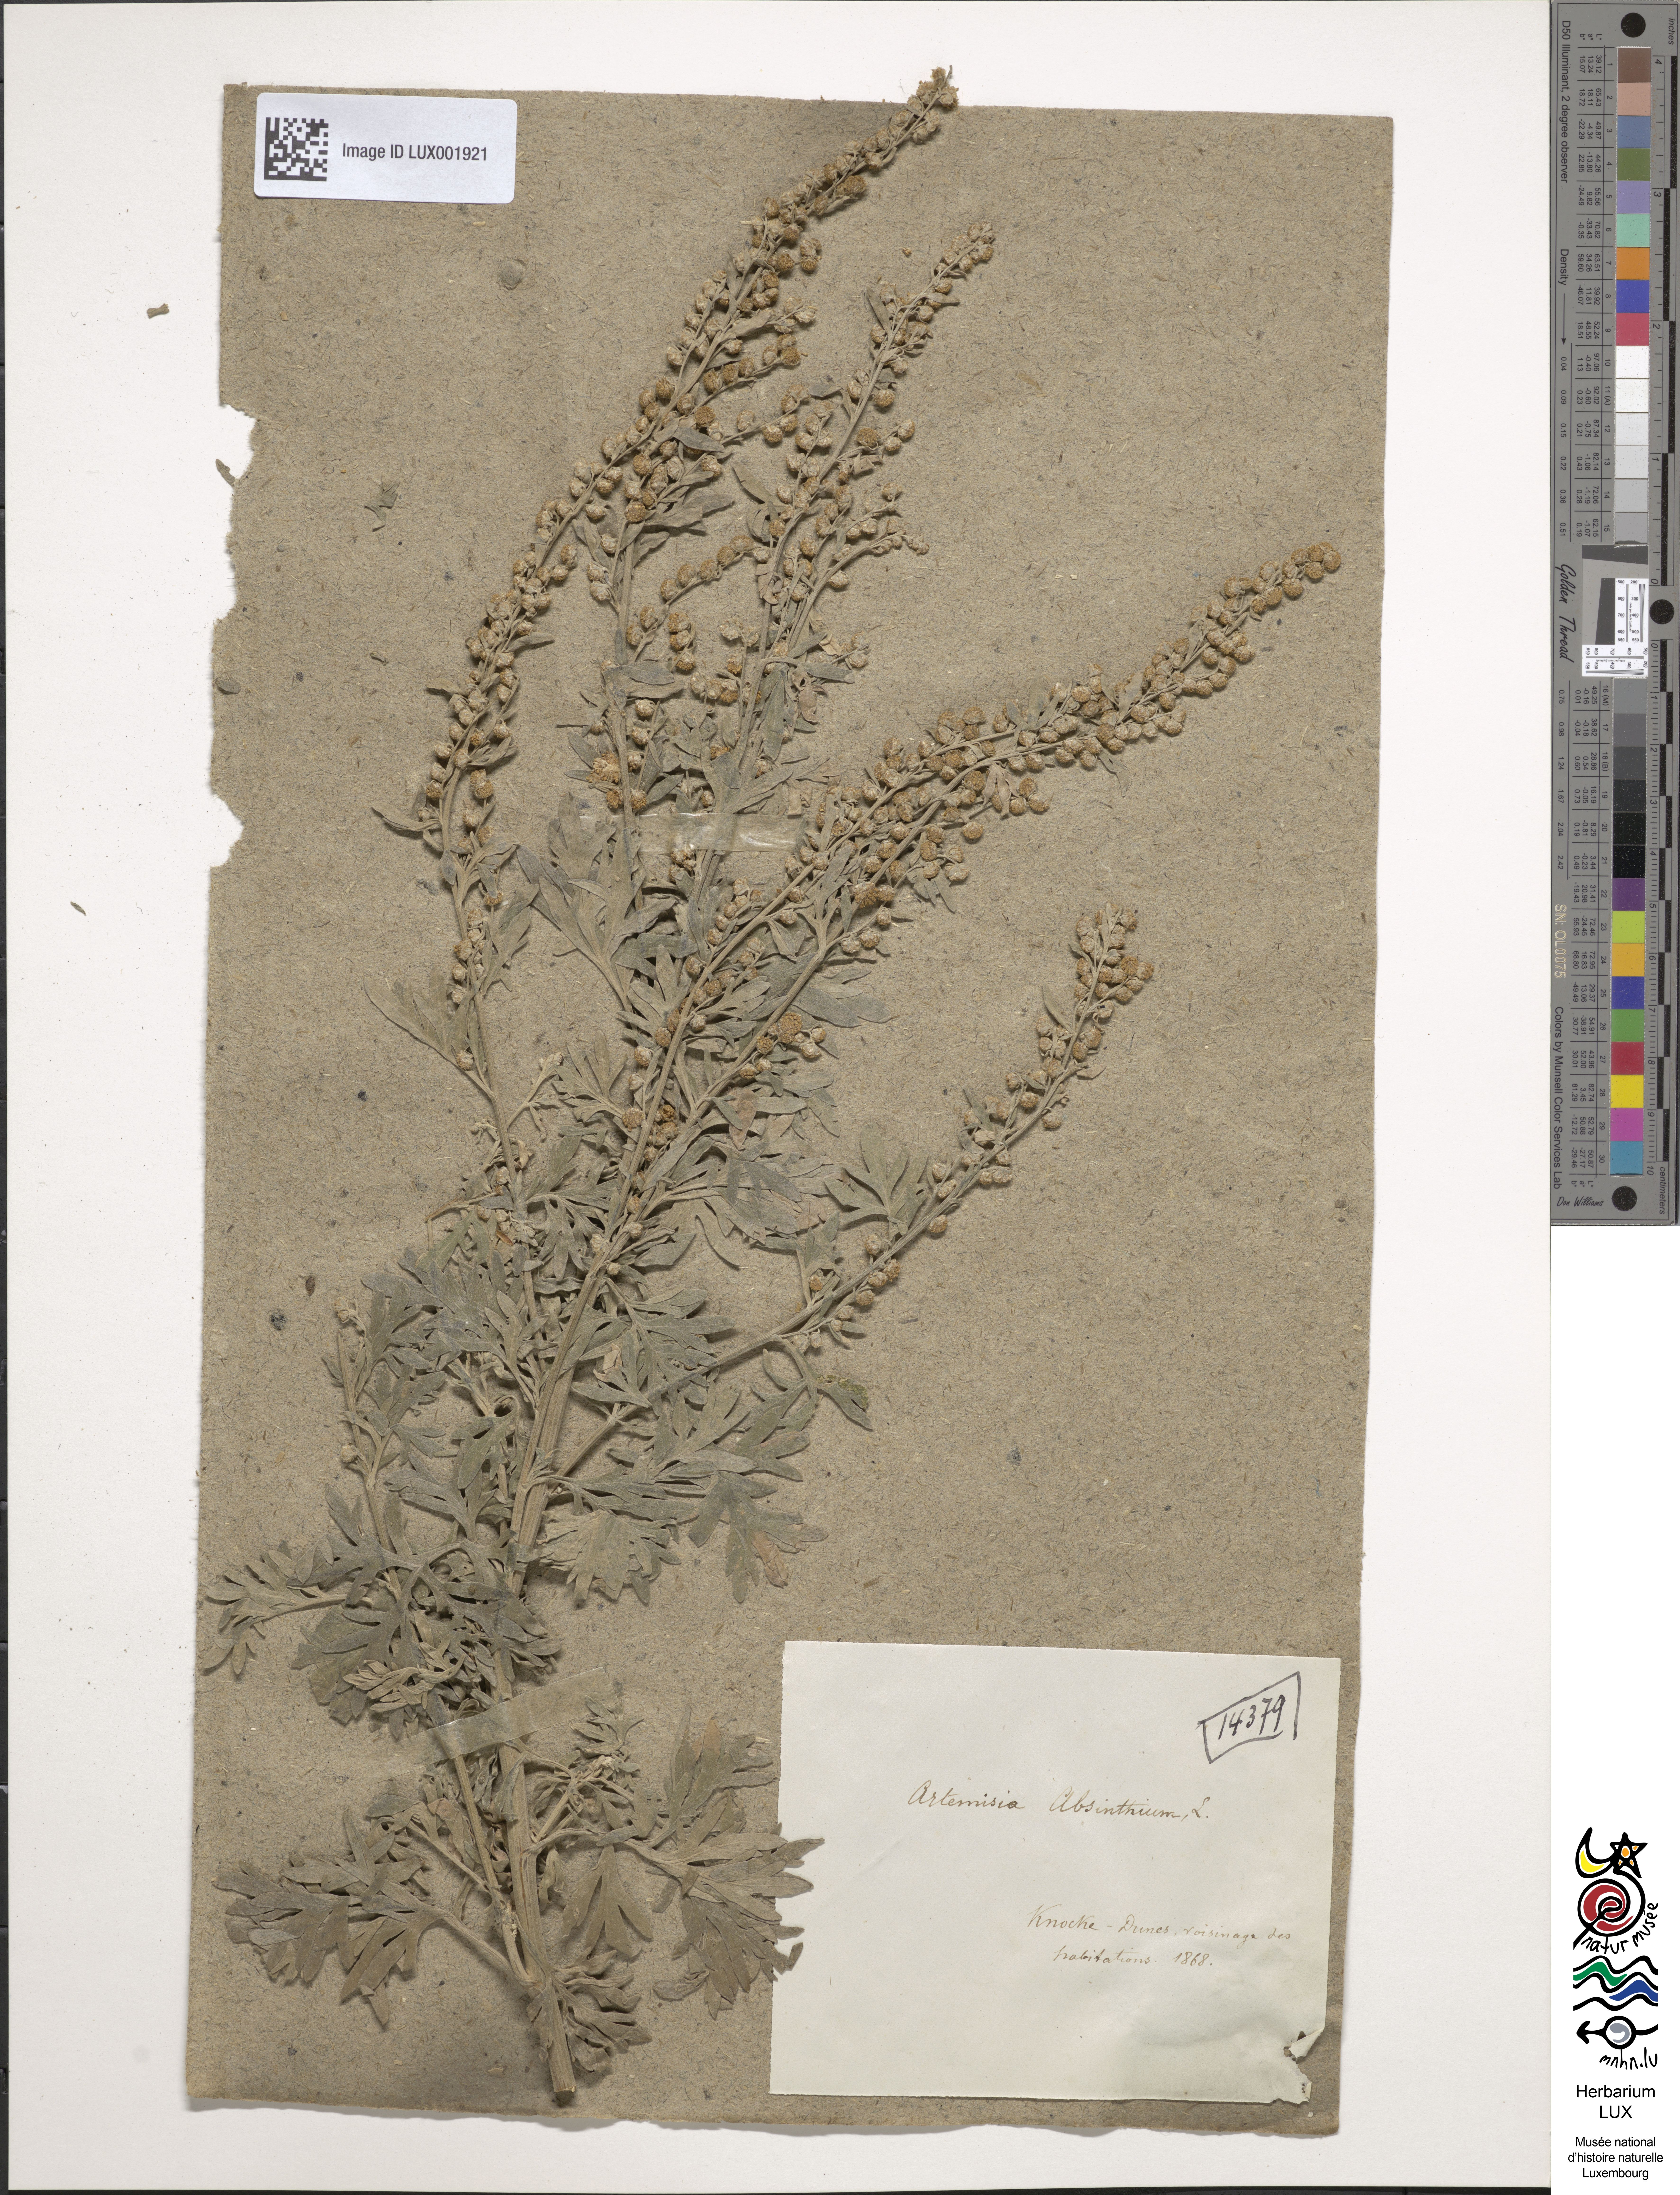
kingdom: Plantae
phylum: Tracheophyta
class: Magnoliopsida
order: Asterales
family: Asteraceae
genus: Artemisia
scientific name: Artemisia absinthium
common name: Wormwood
